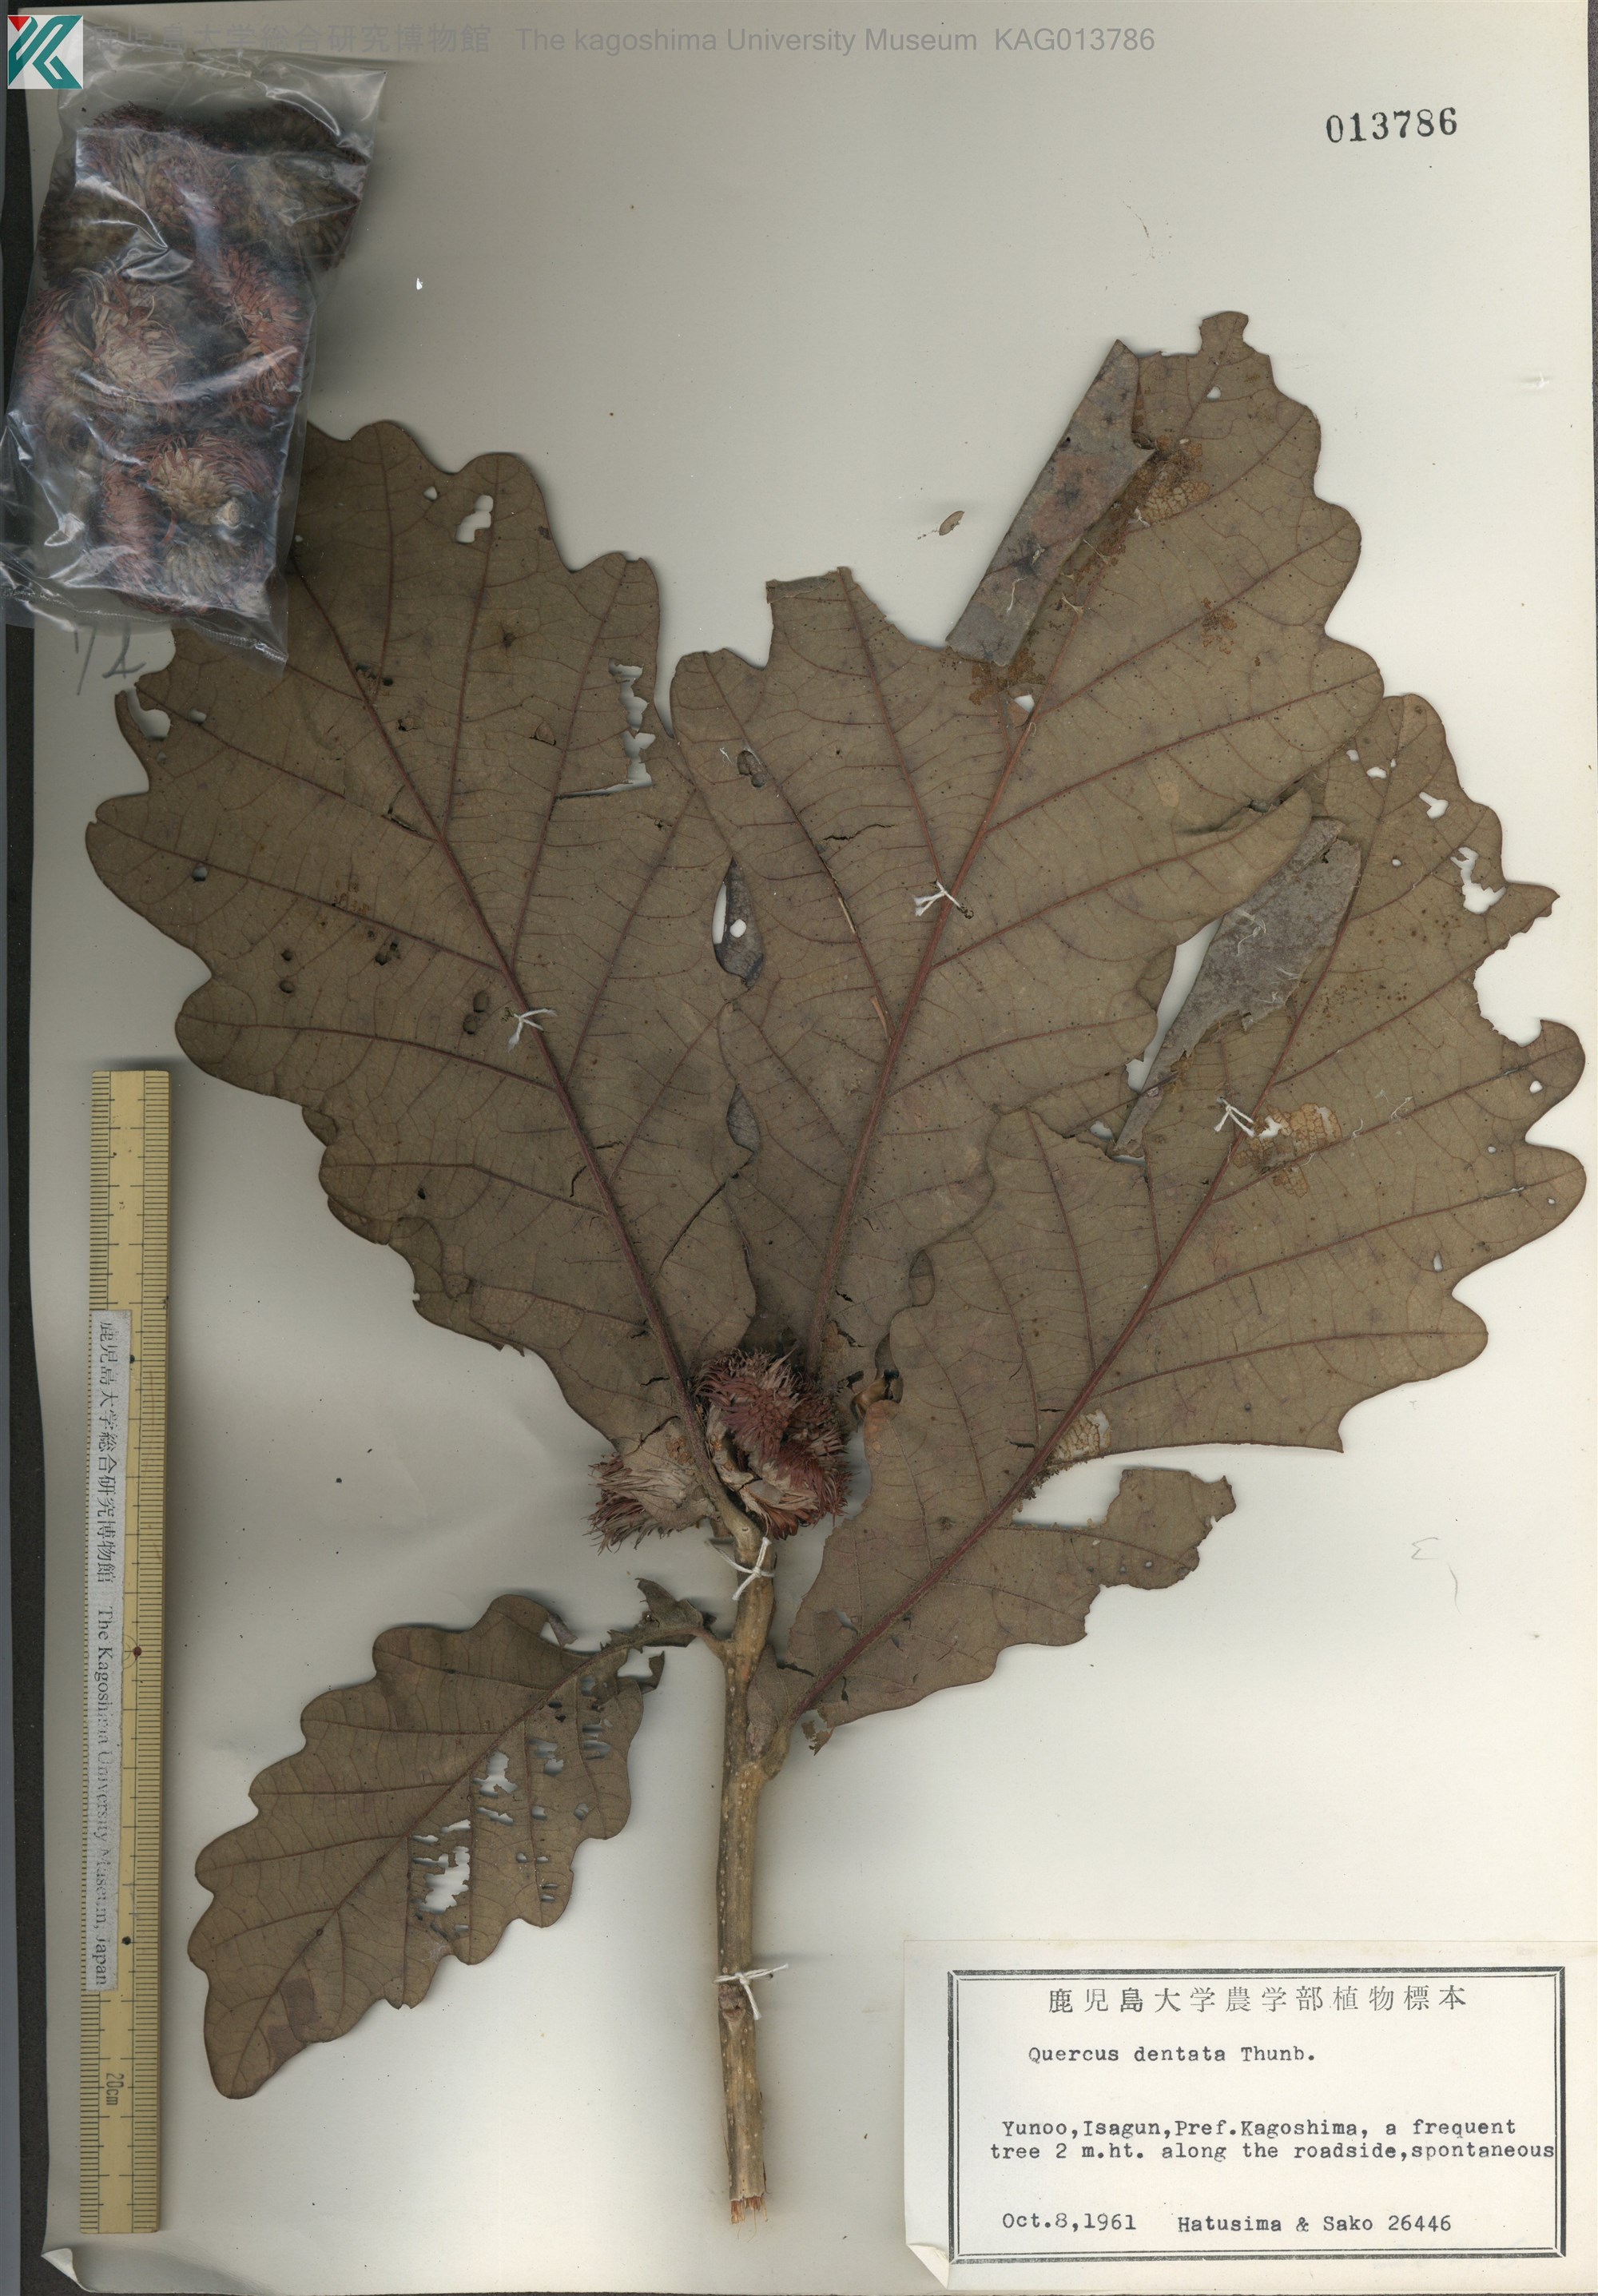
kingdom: Plantae
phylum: Tracheophyta
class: Magnoliopsida
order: Fagales
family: Fagaceae
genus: Quercus
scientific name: Quercus dentata
